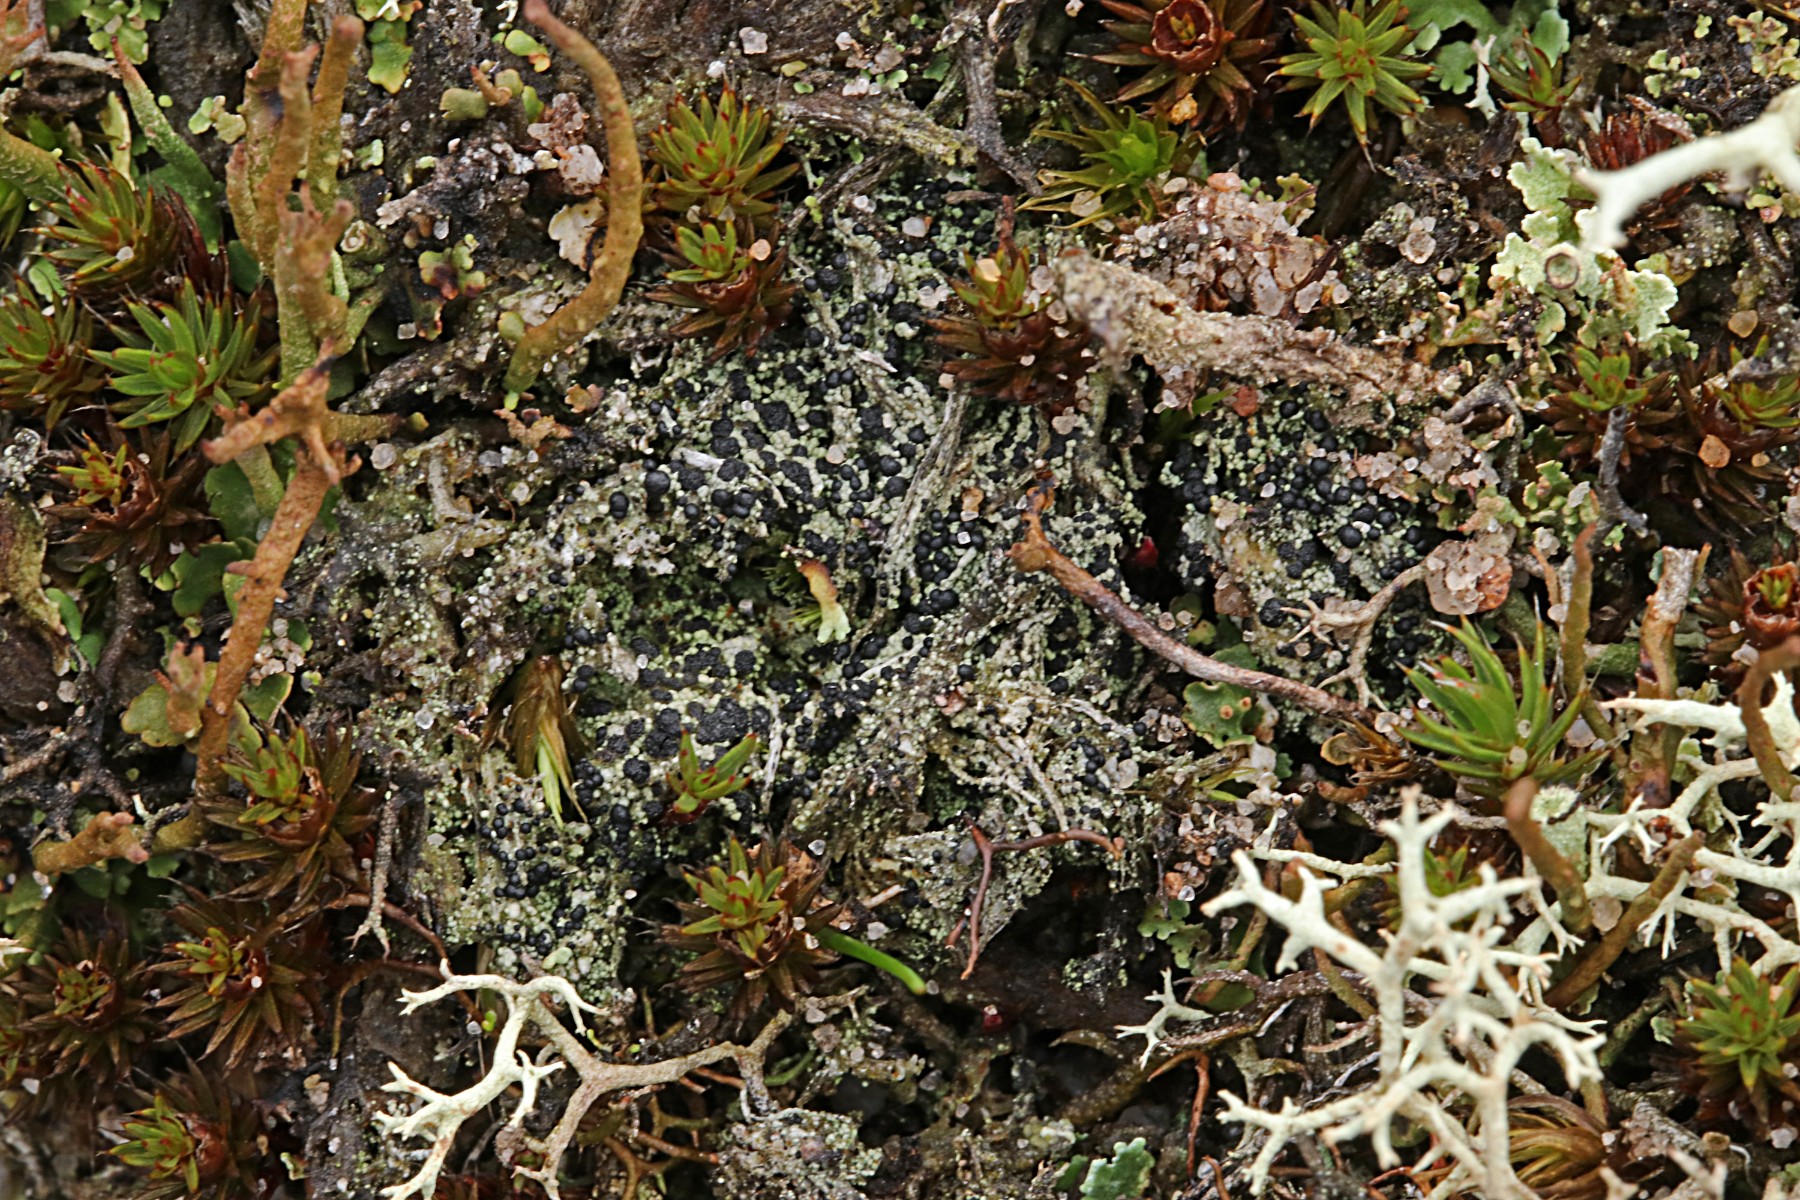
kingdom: Fungi
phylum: Ascomycota
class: Lecanoromycetes
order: Lecanorales
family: Byssolomataceae
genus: Micarea
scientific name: Micarea lignaria
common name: tørve-knaplav
